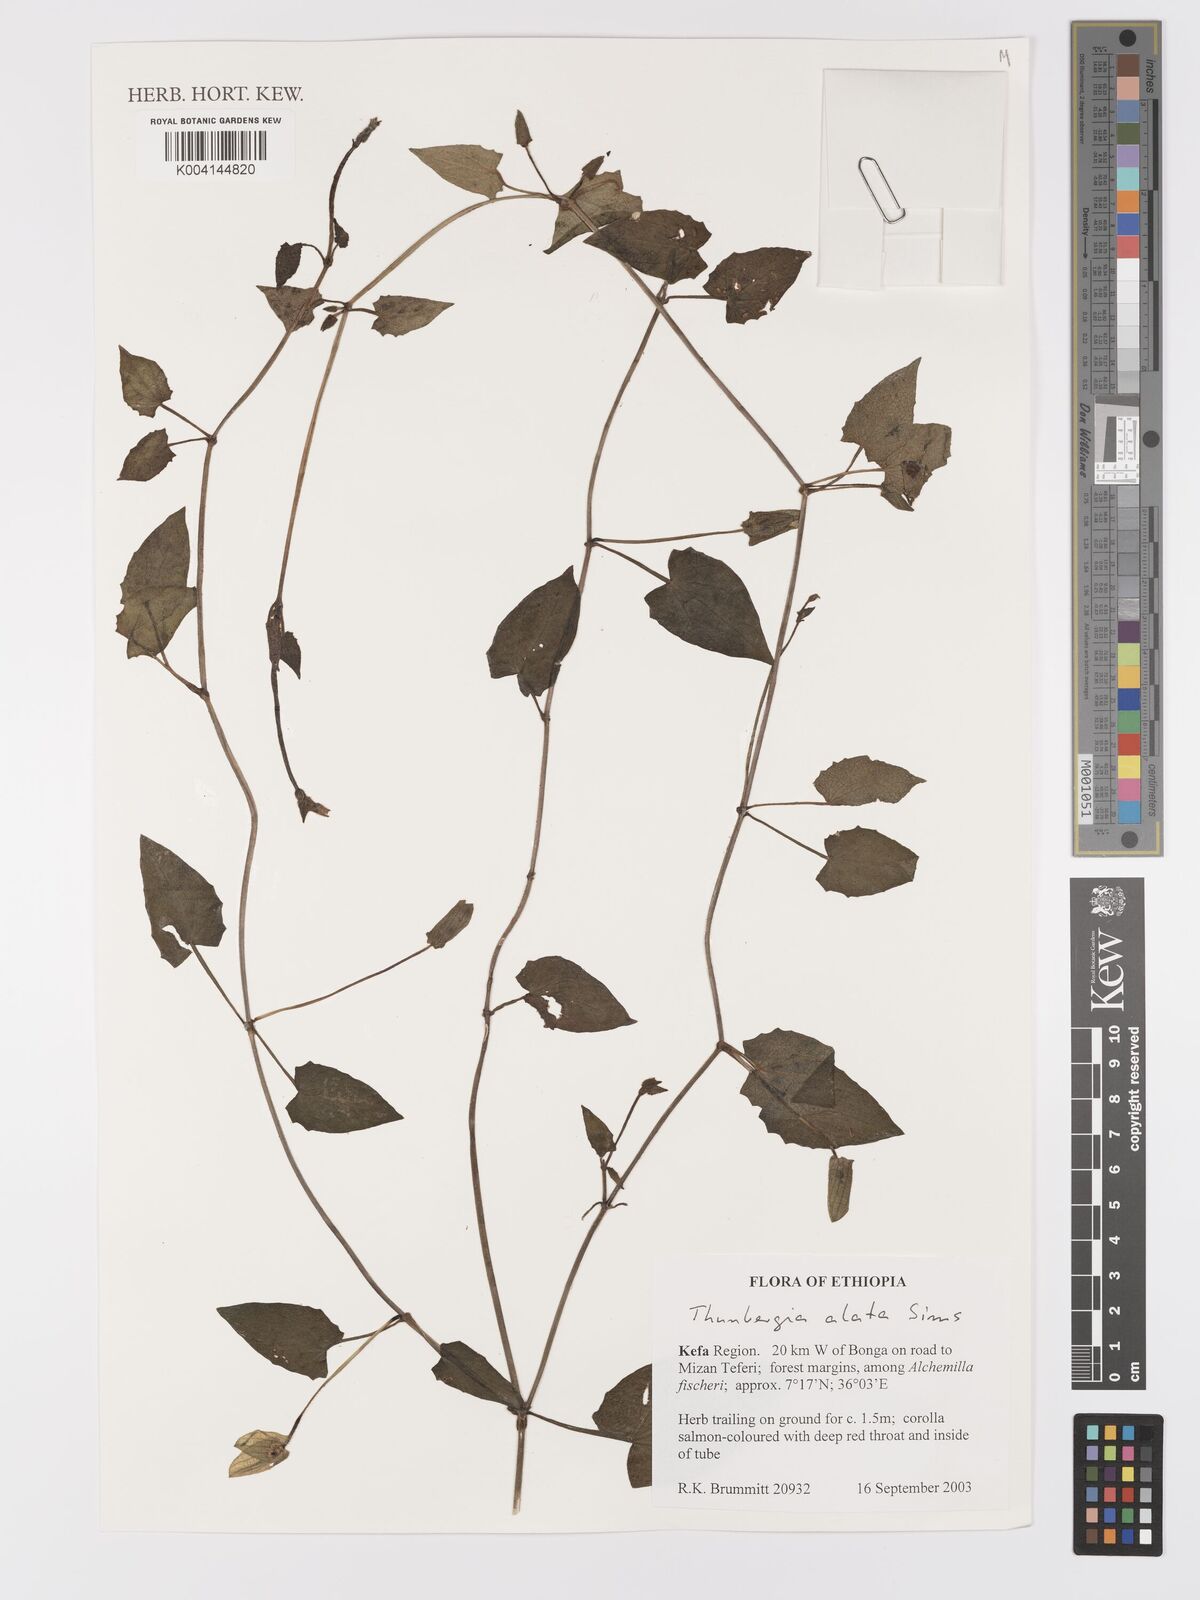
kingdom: Plantae
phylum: Tracheophyta
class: Magnoliopsida
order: Lamiales
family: Acanthaceae
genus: Thunbergia
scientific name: Thunbergia alata
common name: Blackeyed susan vine
